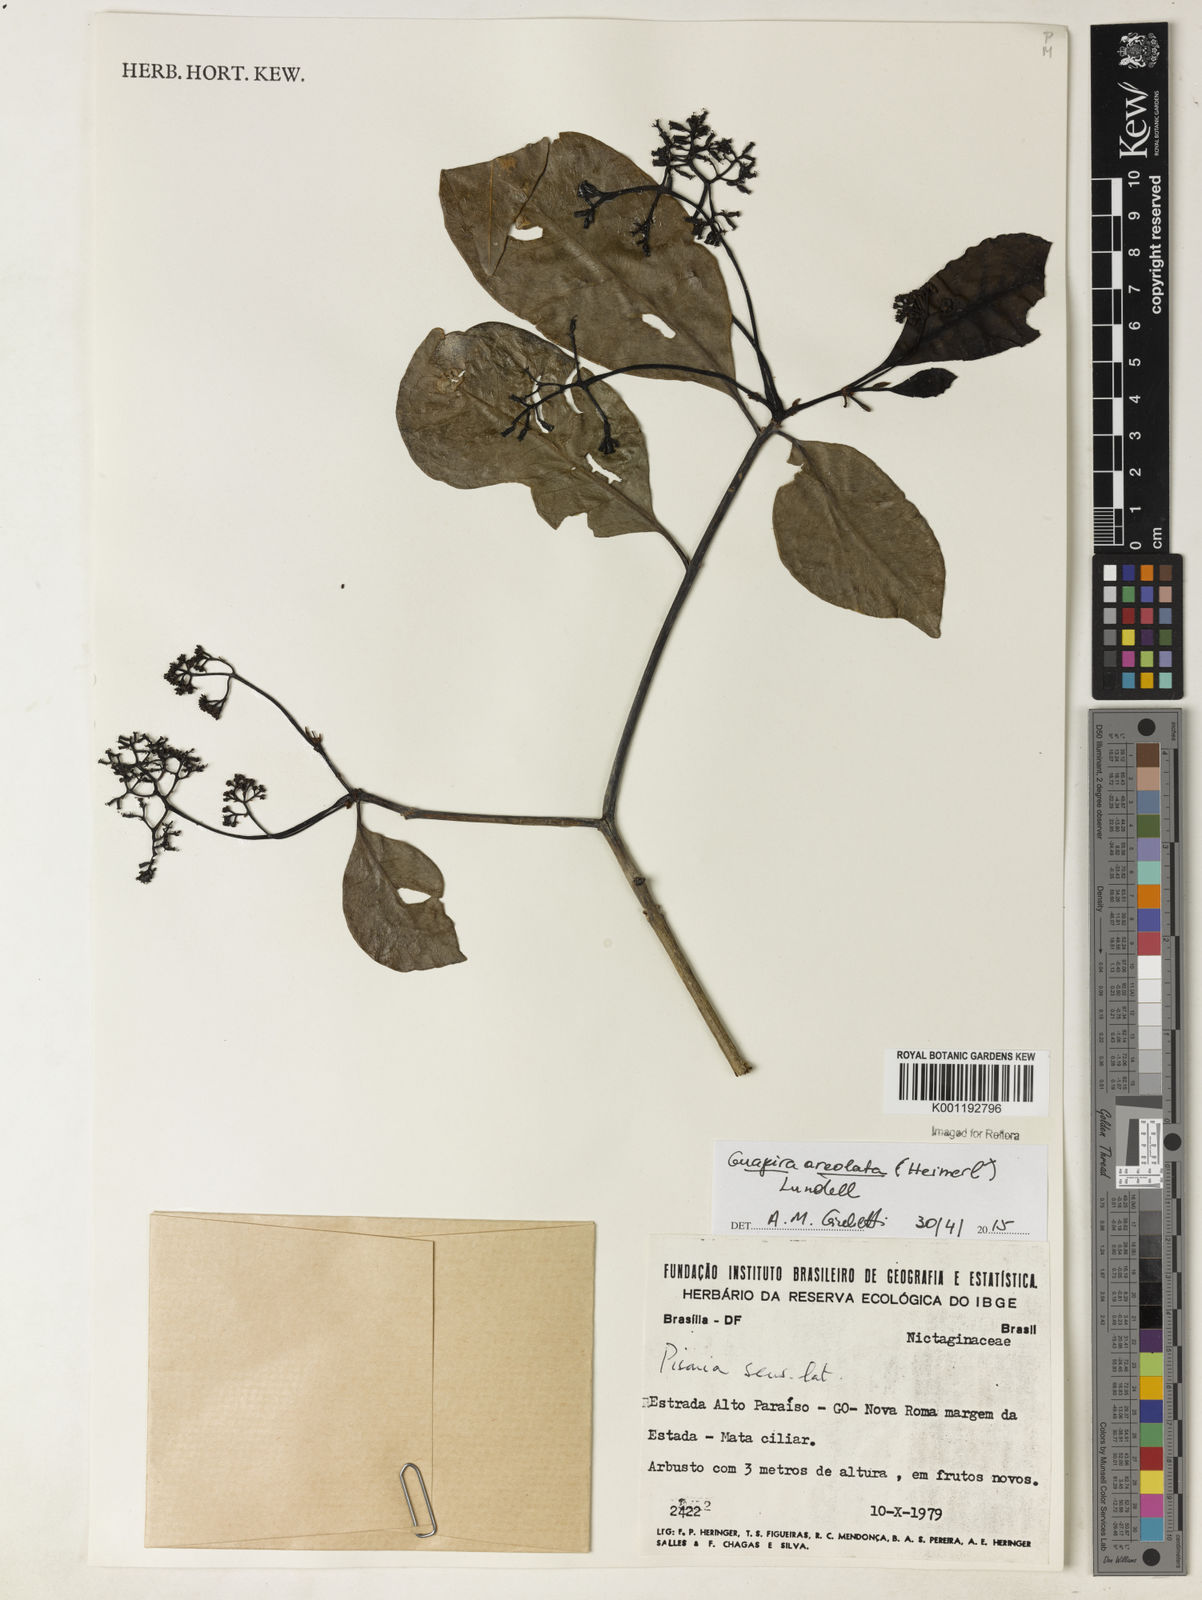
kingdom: Plantae
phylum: Tracheophyta
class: Magnoliopsida
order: Caryophyllales
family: Nyctaginaceae
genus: Guapira
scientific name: Guapira areolata
